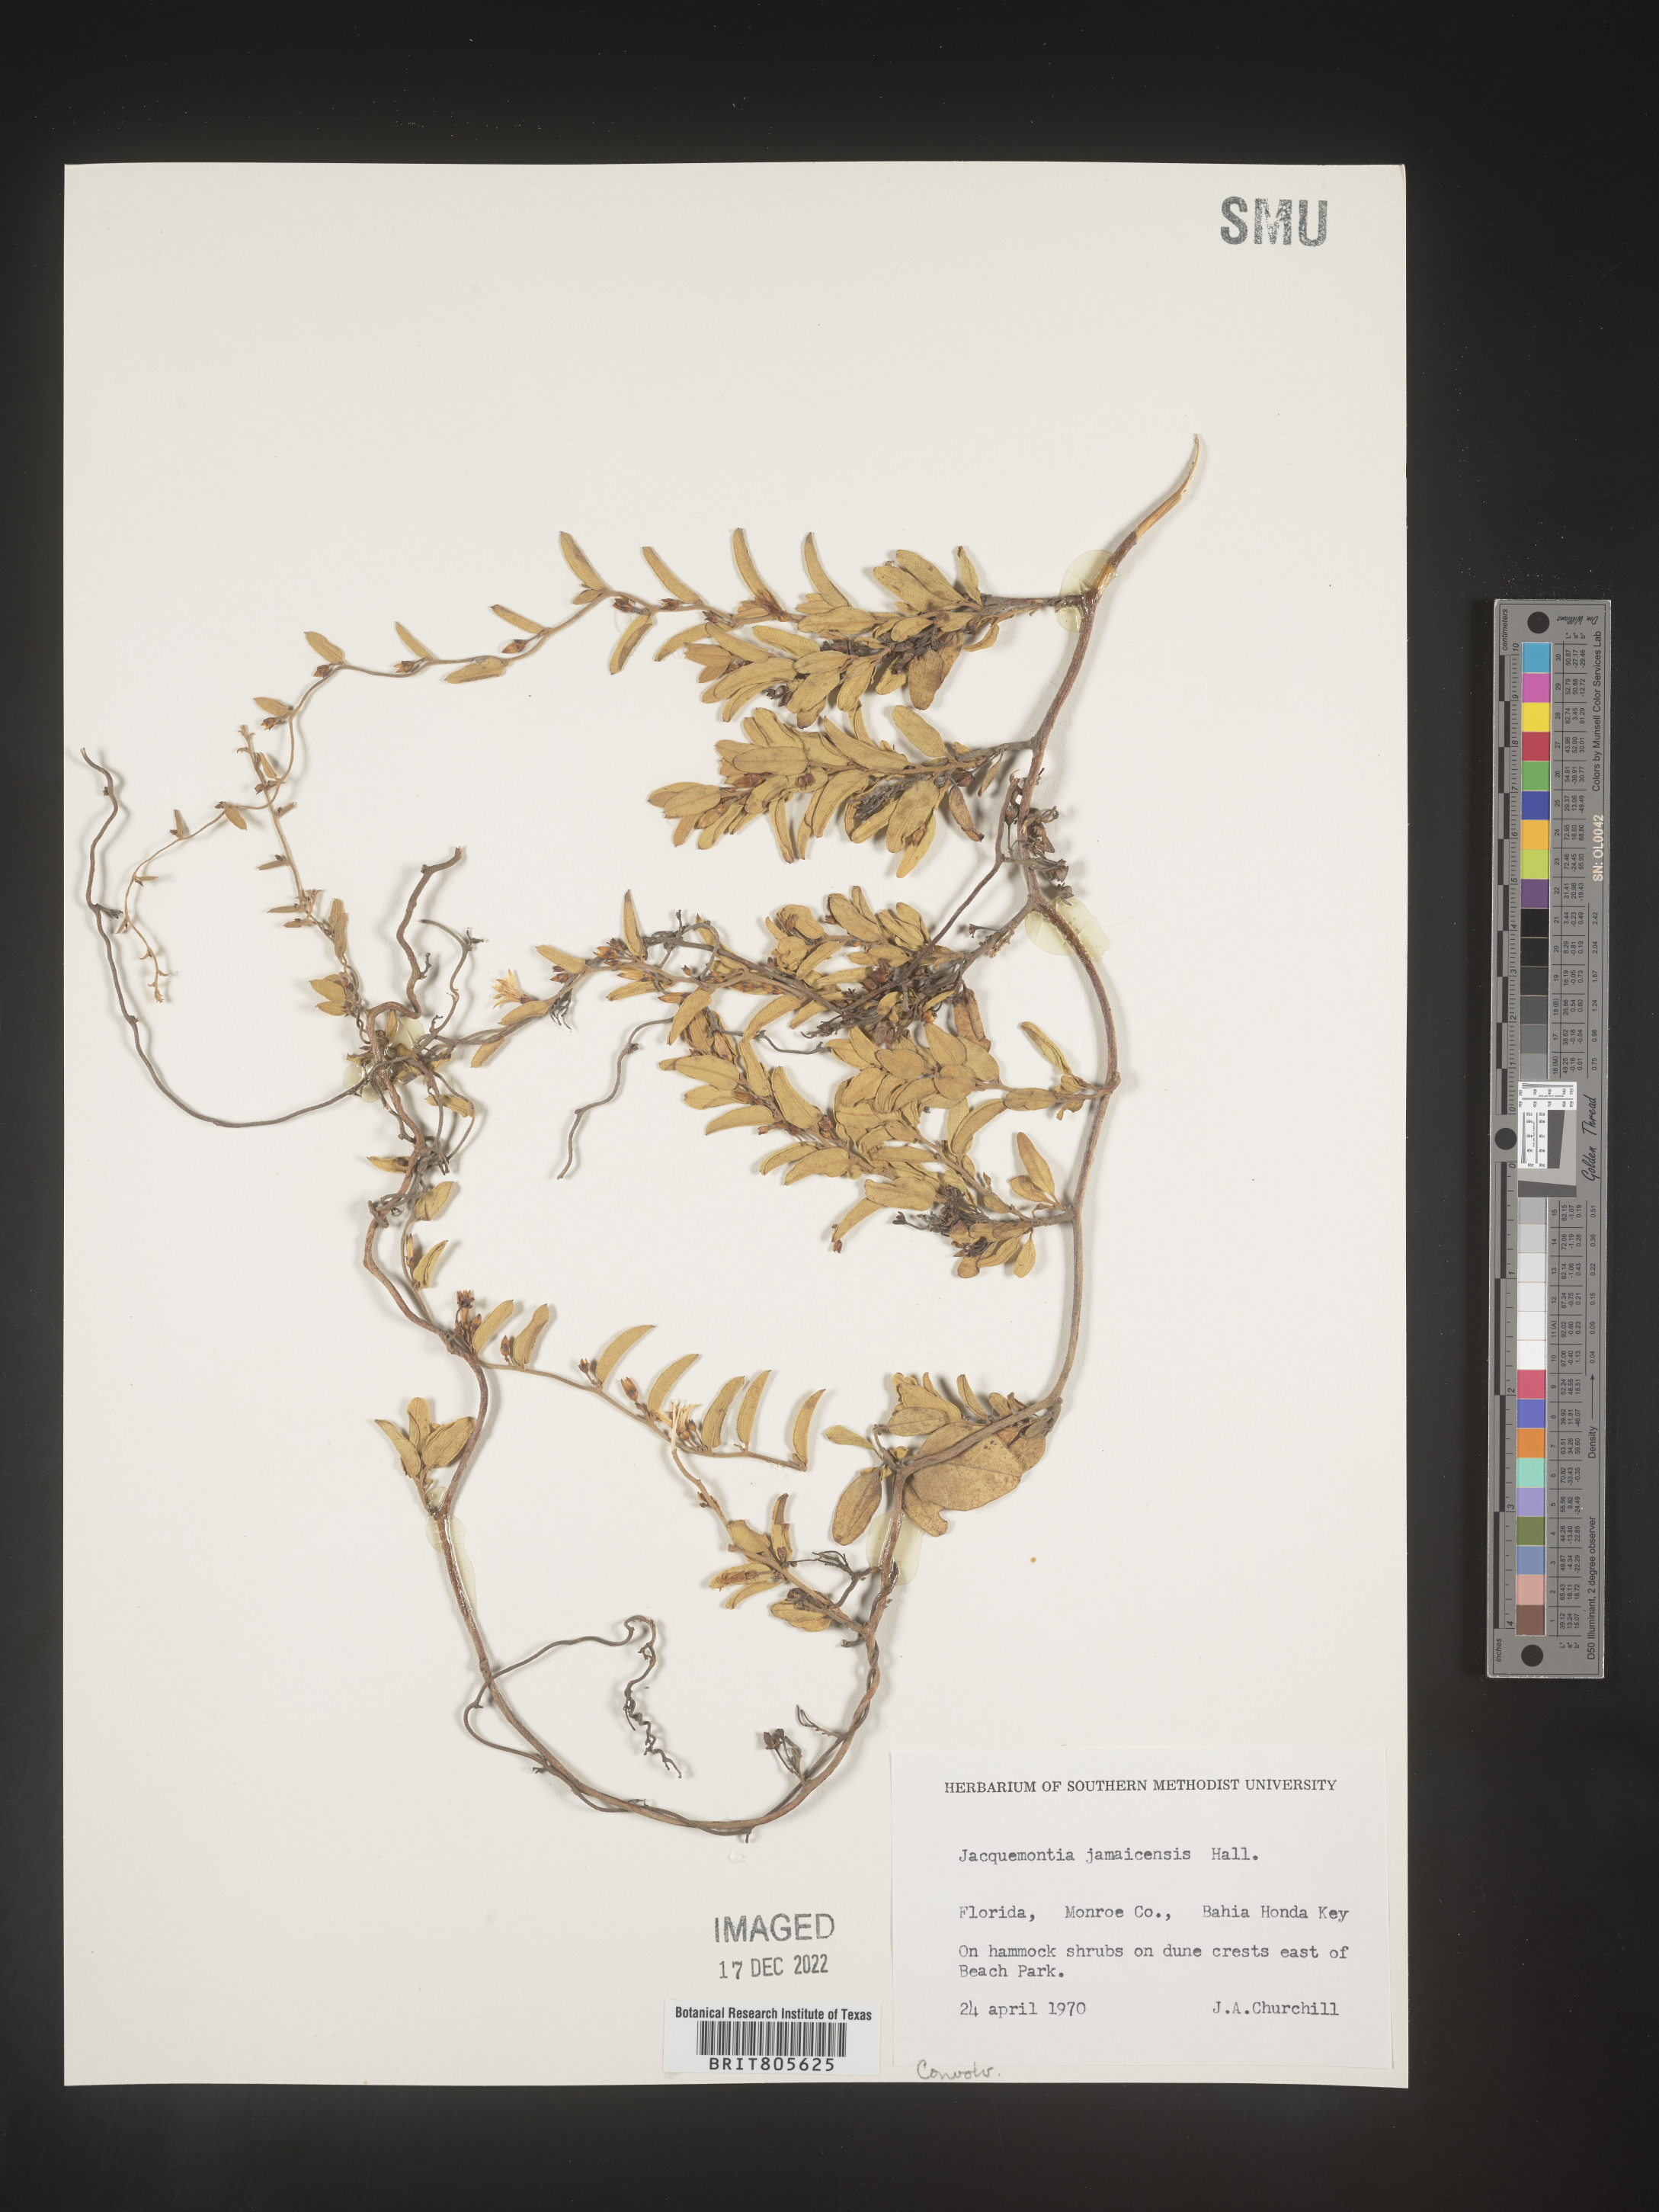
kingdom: Plantae
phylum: Tracheophyta
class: Magnoliopsida
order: Solanales
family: Convolvulaceae
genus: Jacquemontia
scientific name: Jacquemontia
